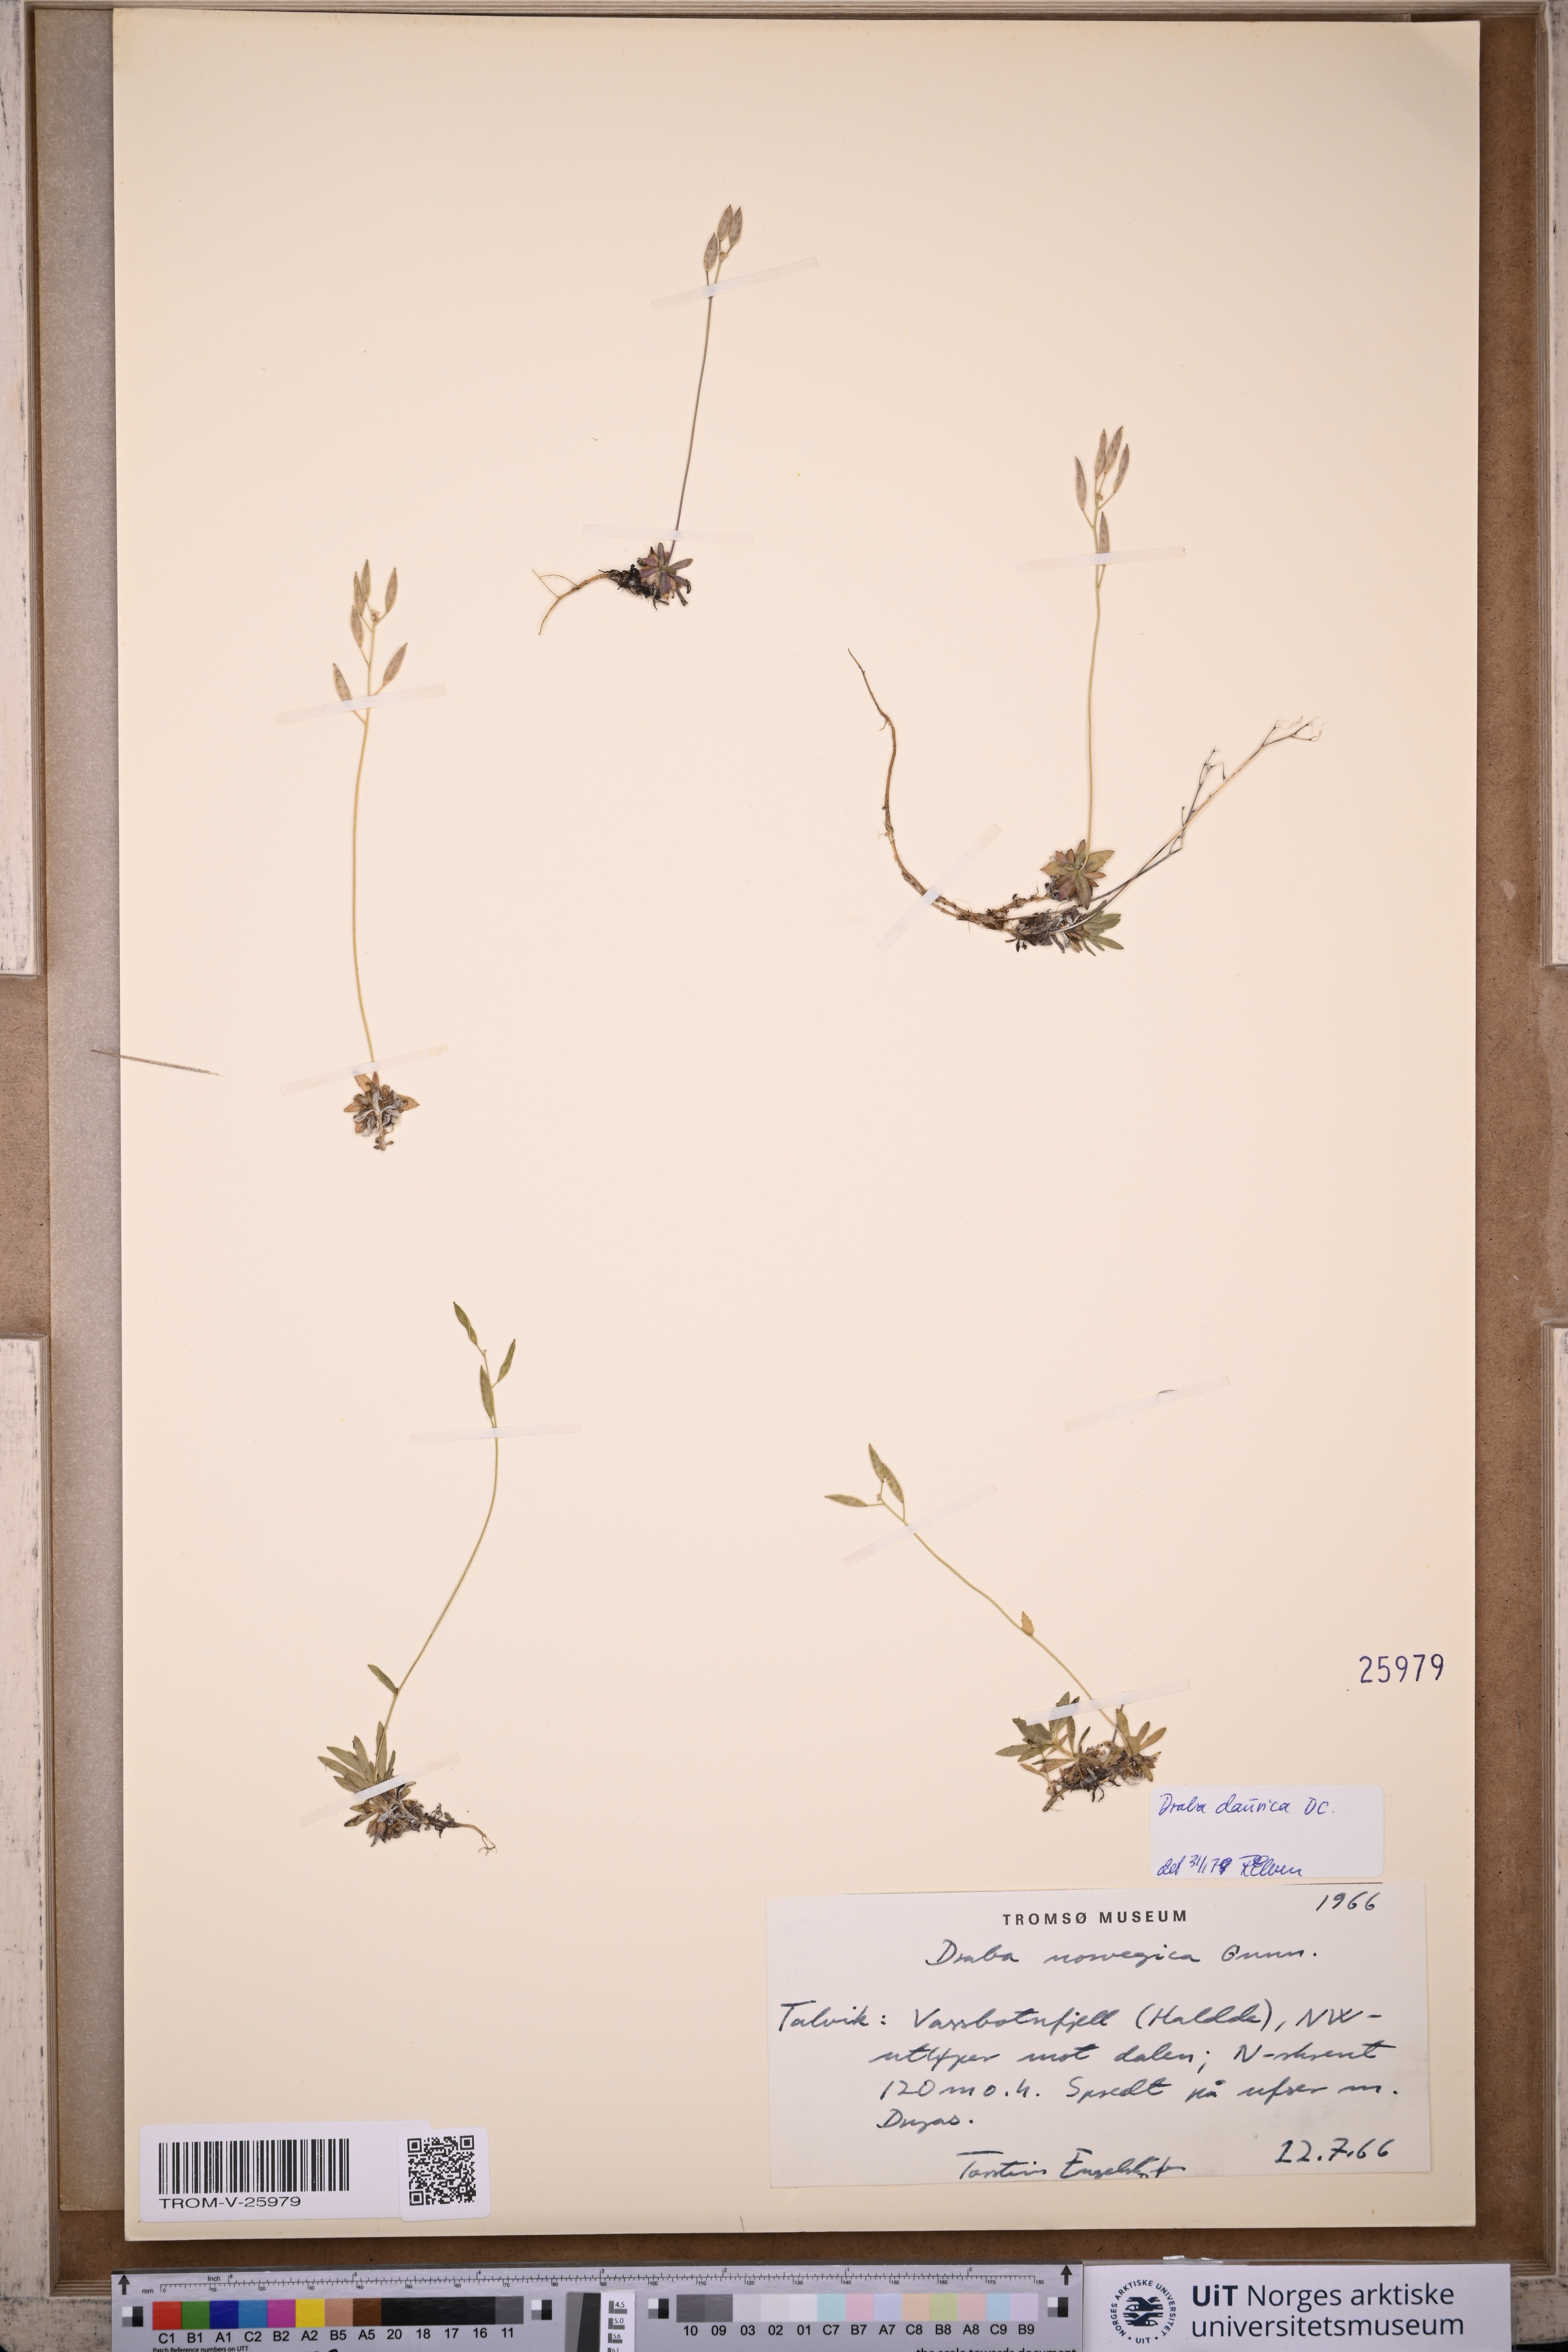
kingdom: Plantae
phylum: Tracheophyta
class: Magnoliopsida
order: Brassicales
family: Brassicaceae
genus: Draba
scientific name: Draba glabella
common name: Glaucous draba
